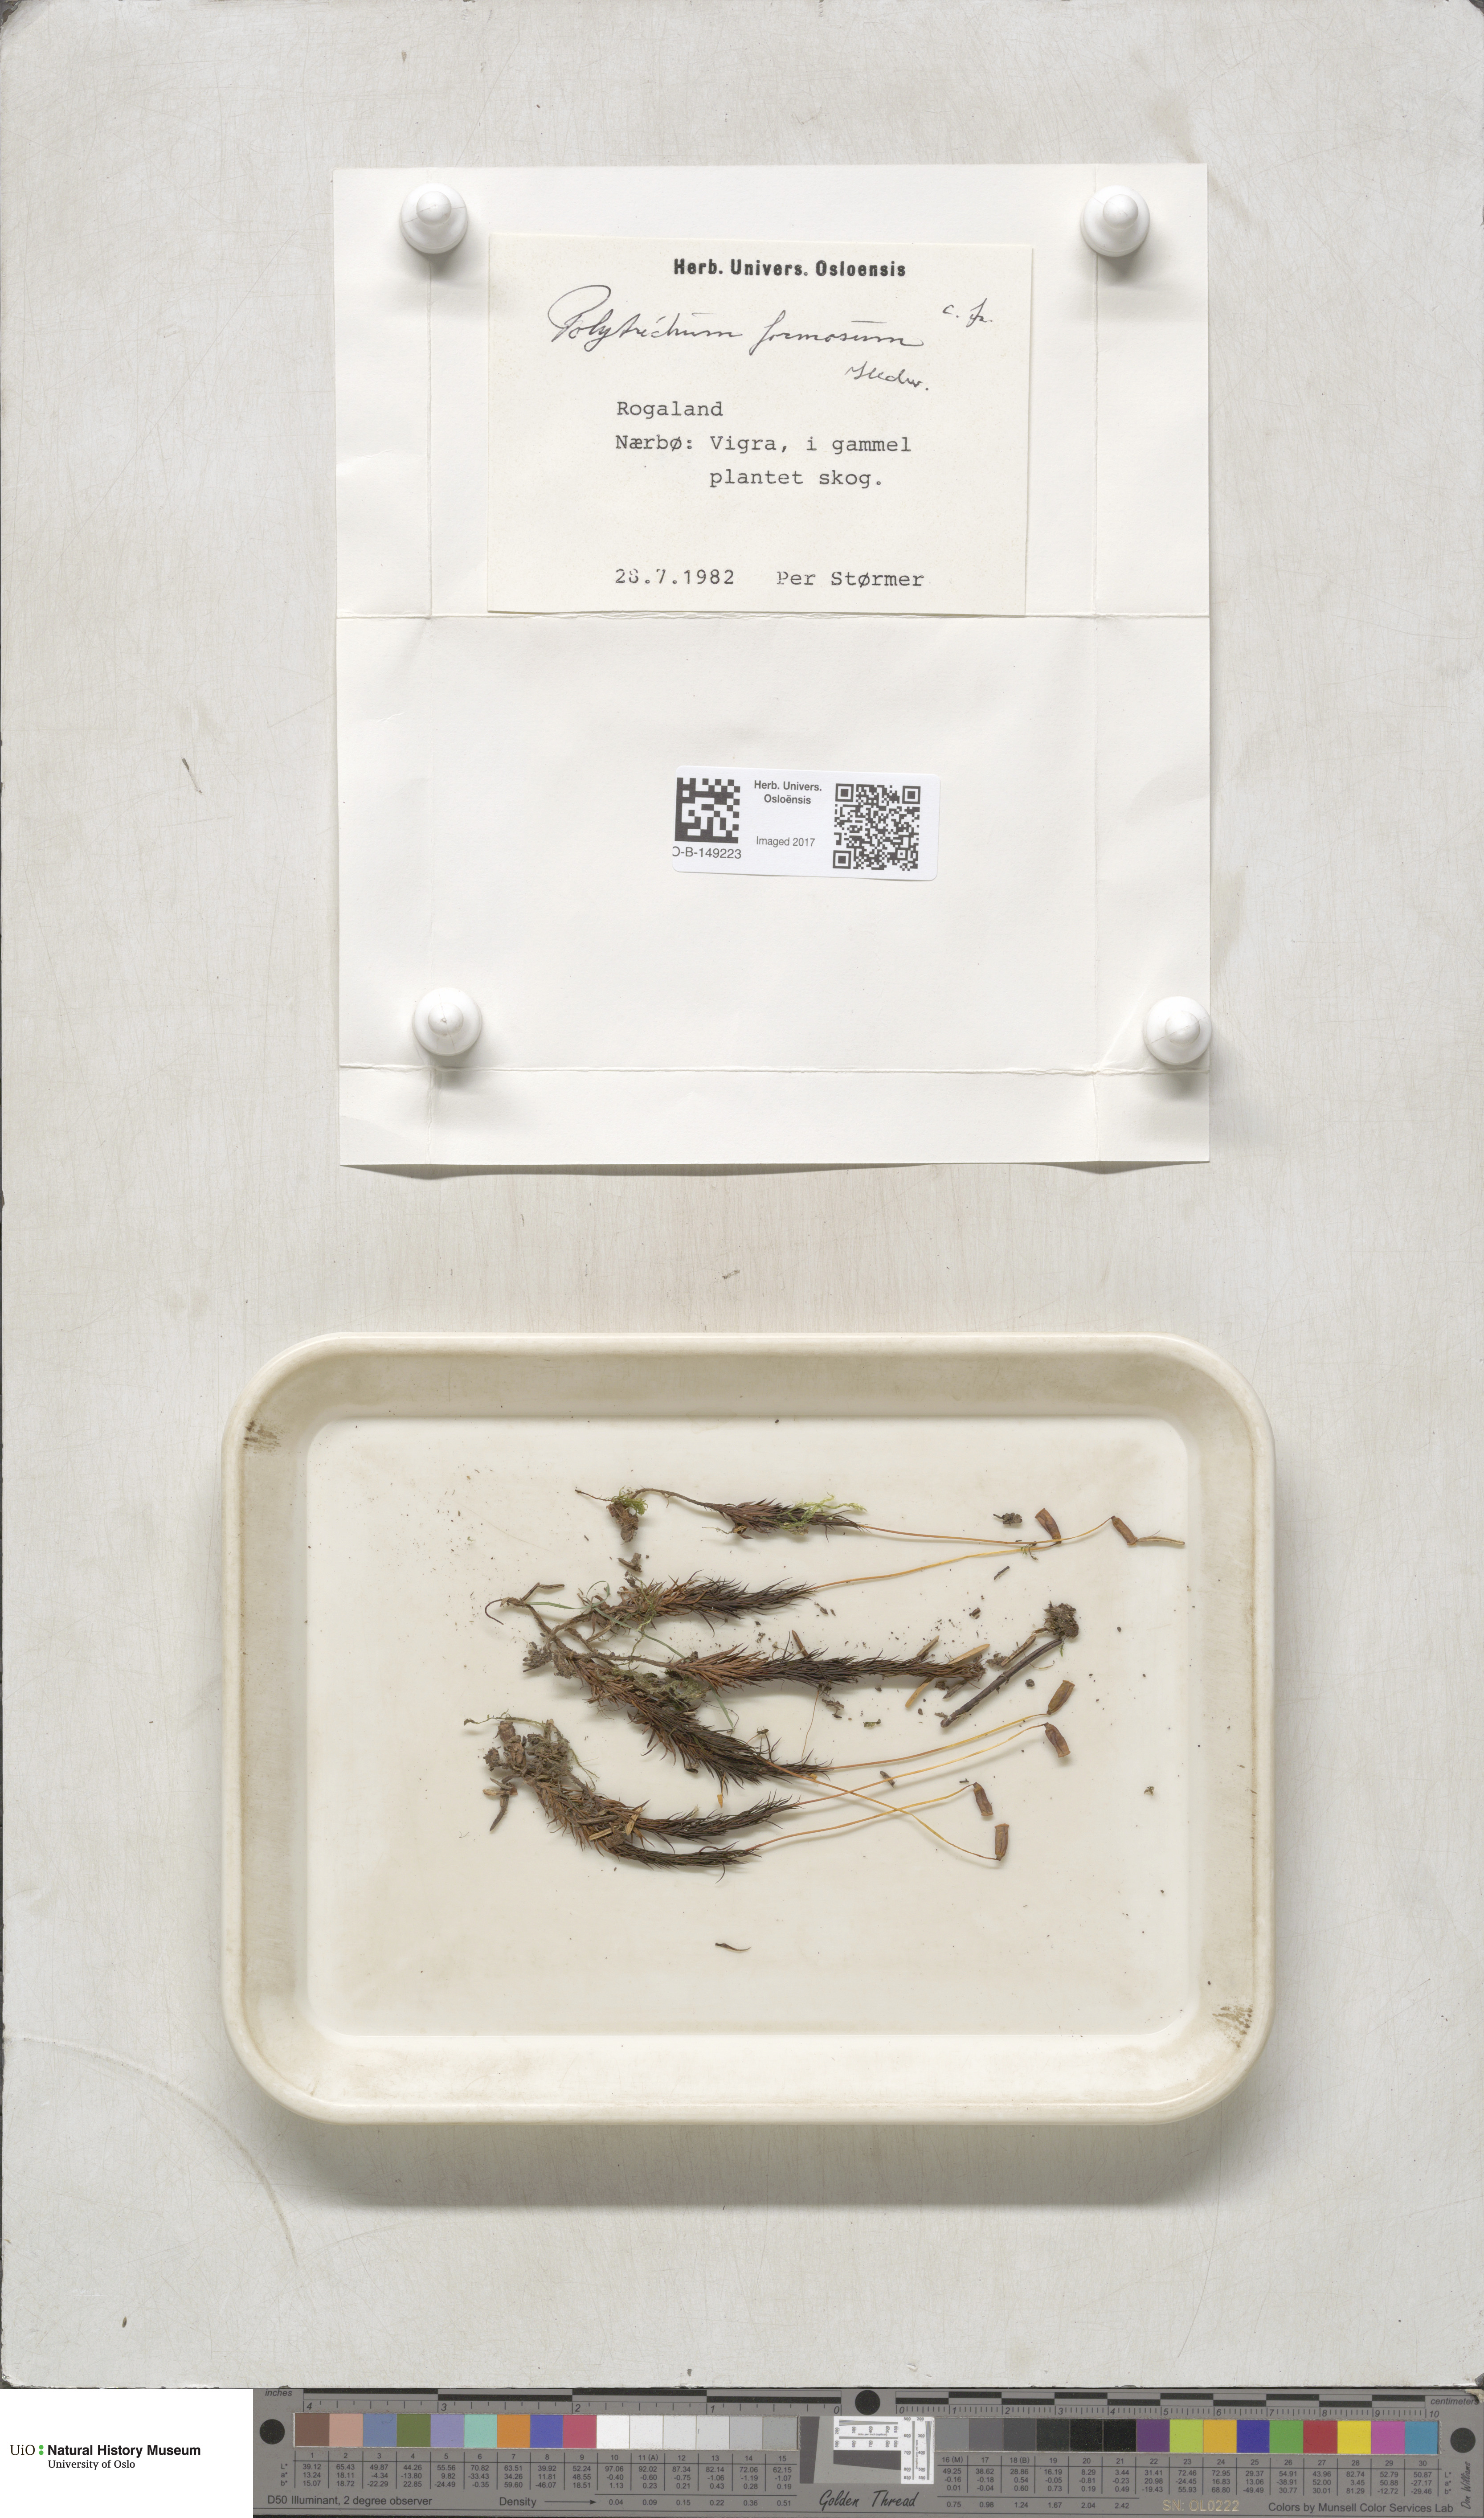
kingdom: Plantae
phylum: Bryophyta
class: Polytrichopsida
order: Polytrichales
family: Polytrichaceae
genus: Polytrichum
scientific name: Polytrichum formosum
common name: Bank haircap moss
